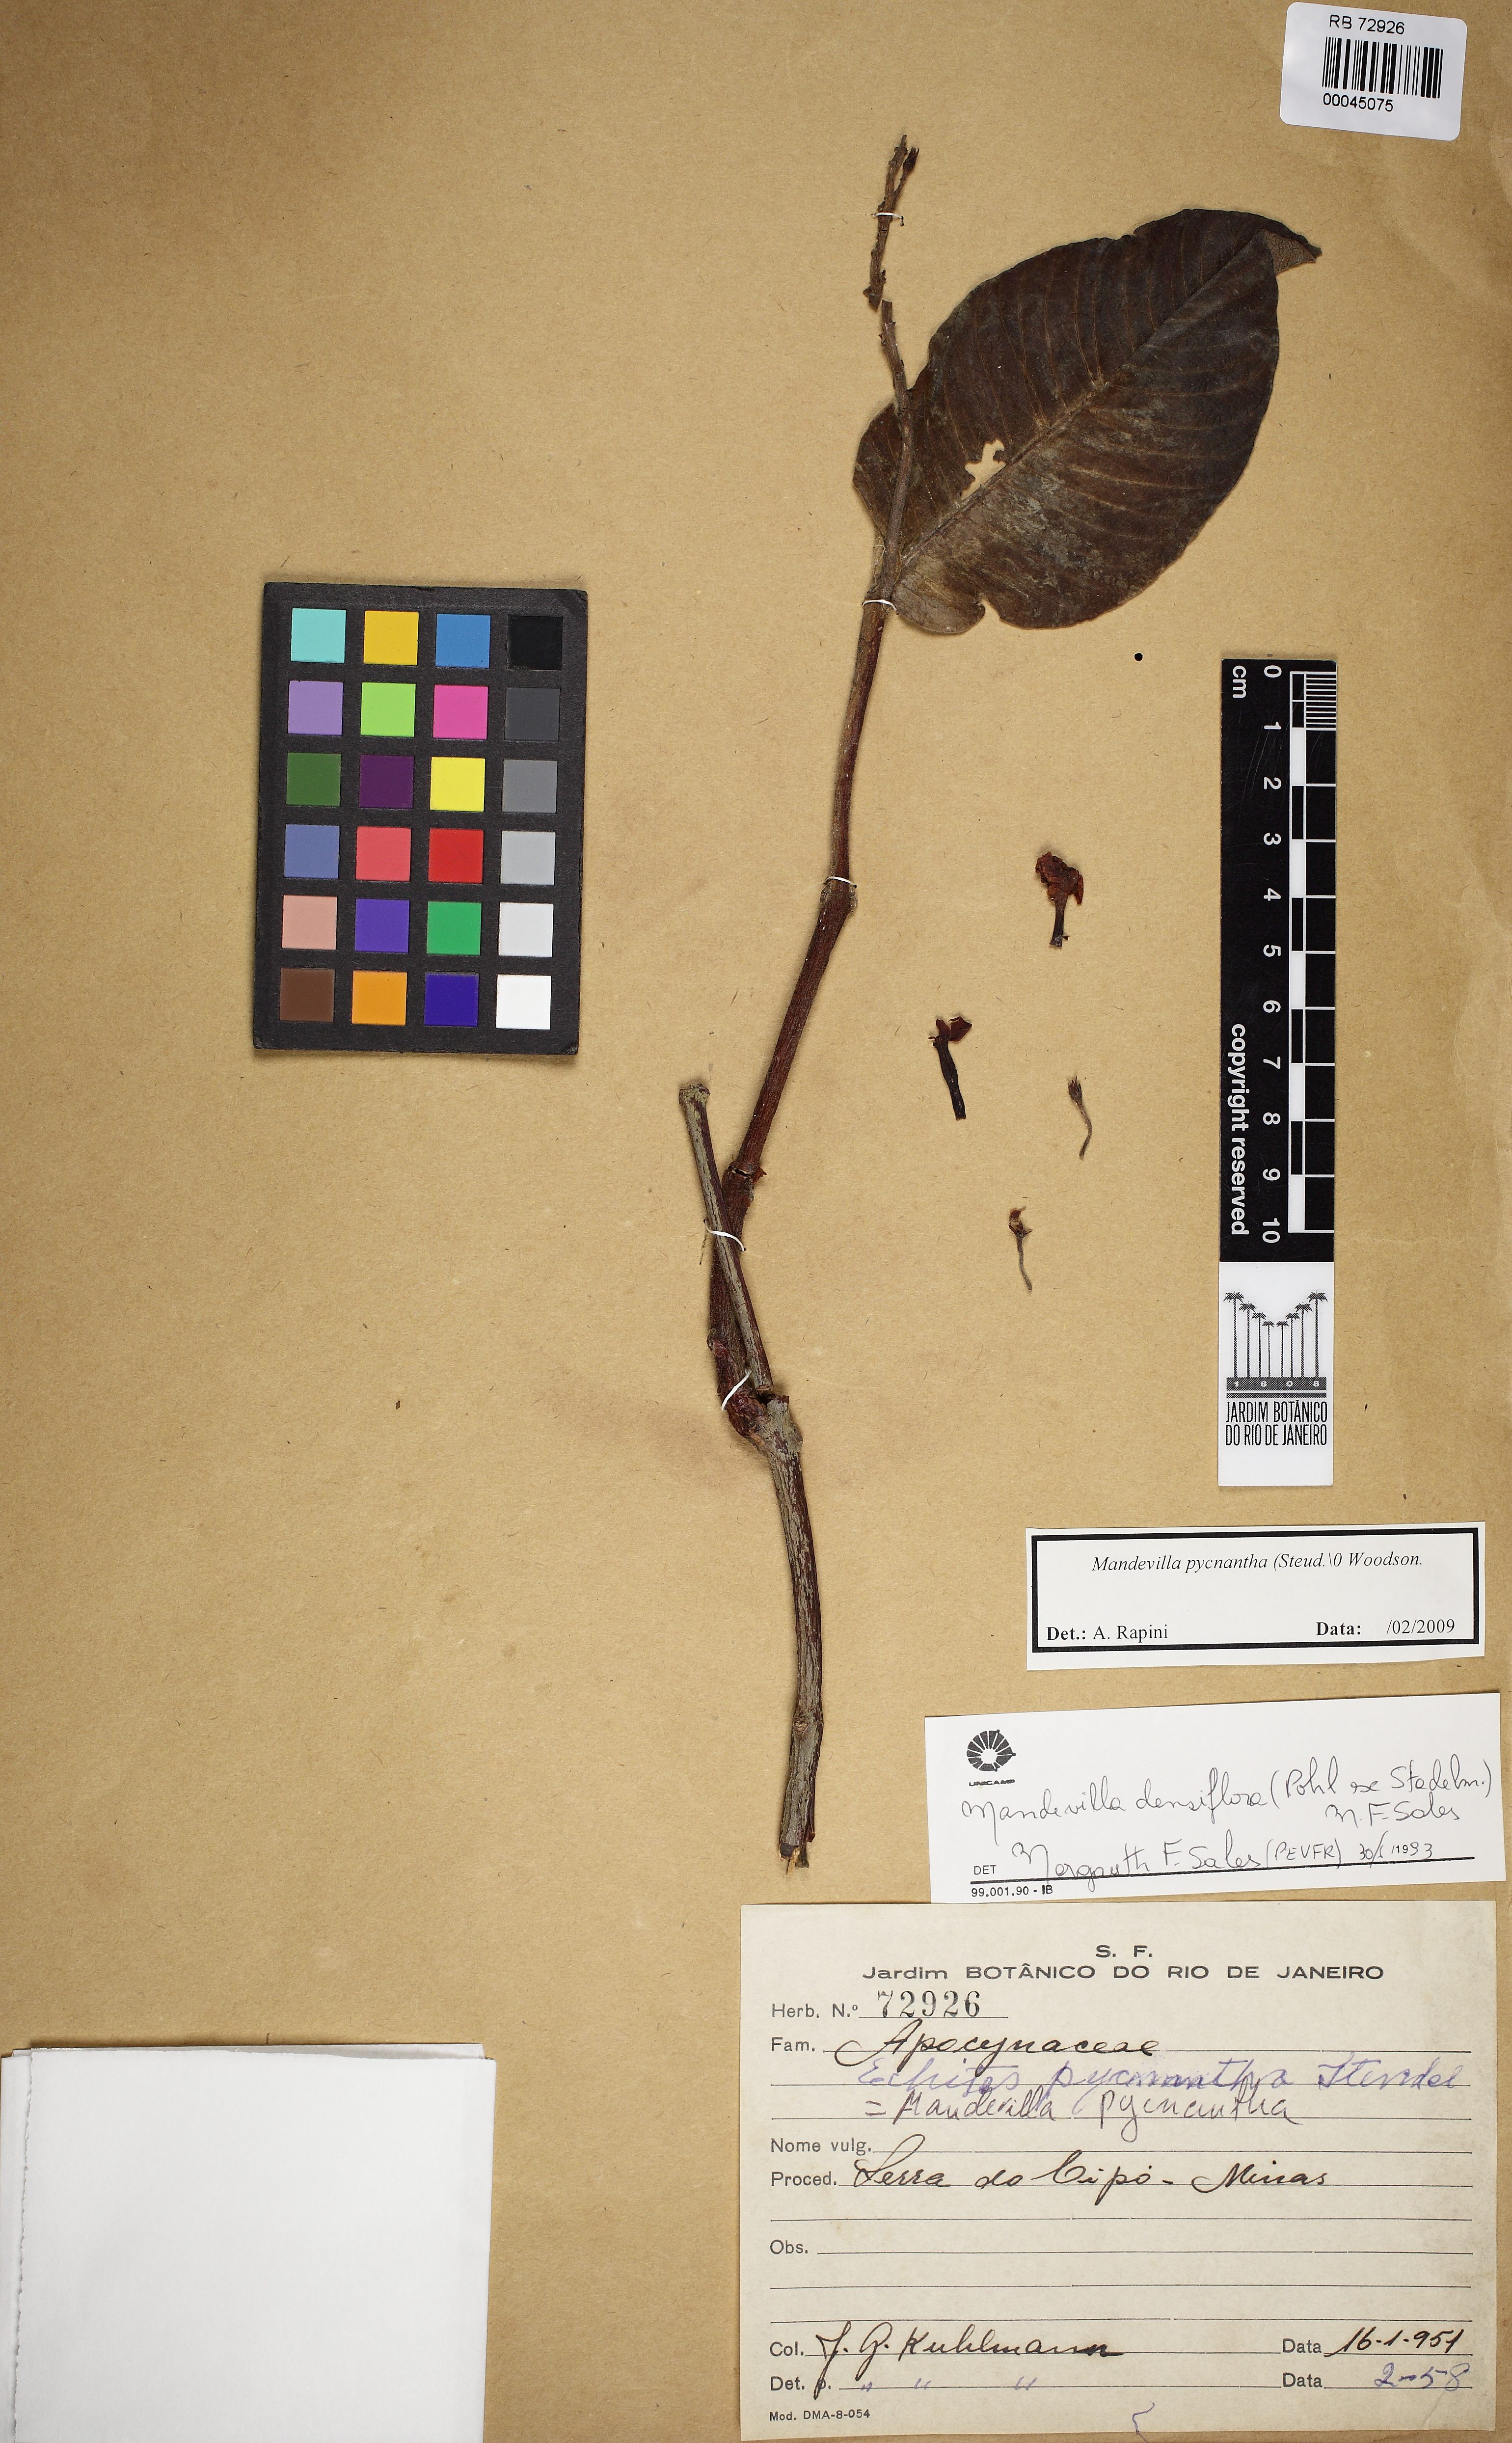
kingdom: Plantae
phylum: Tracheophyta
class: Magnoliopsida
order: Gentianales
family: Apocynaceae
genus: Mandevilla
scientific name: Mandevilla pycnantha
